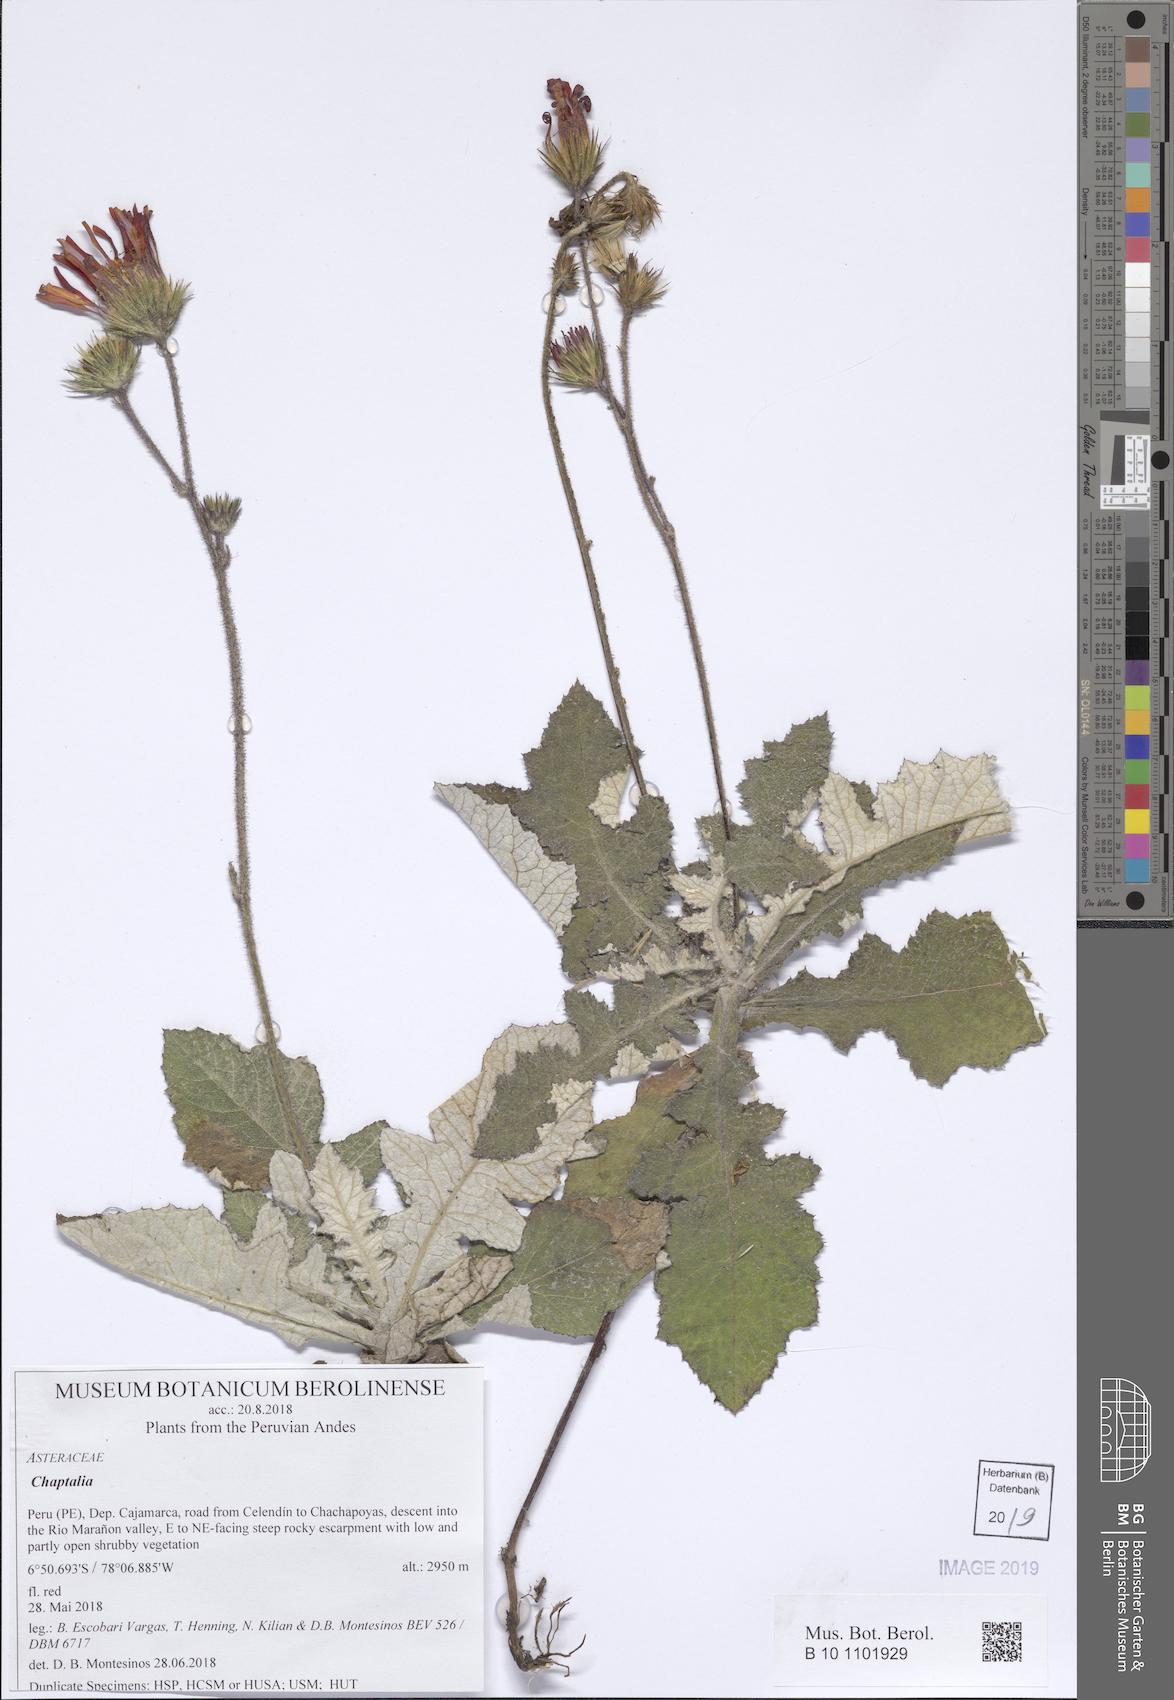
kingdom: Plantae
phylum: Tracheophyta
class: Magnoliopsida
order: Asterales
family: Asteraceae
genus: Onoseris
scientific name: Onoseris macbridei
